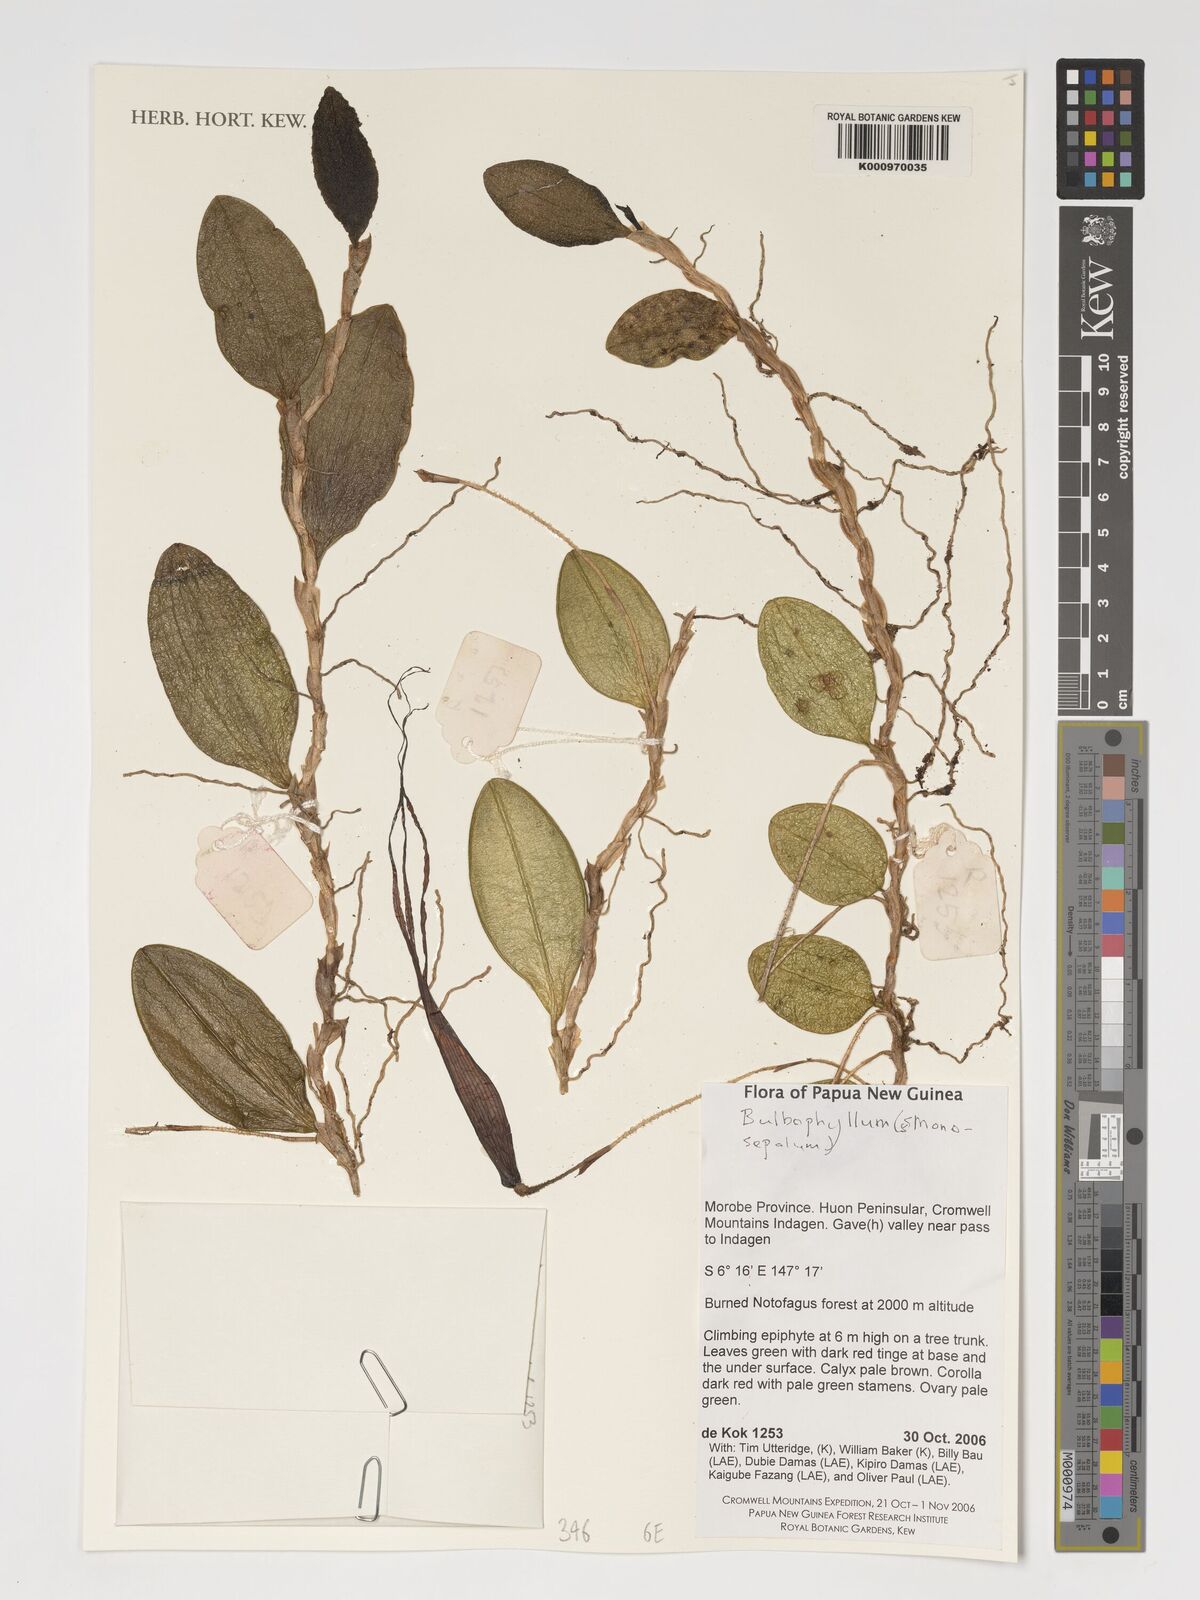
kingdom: Plantae
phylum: Tracheophyta
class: Liliopsida
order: Asparagales
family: Orchidaceae
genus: Bulbophyllum
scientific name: Bulbophyllum napellii
